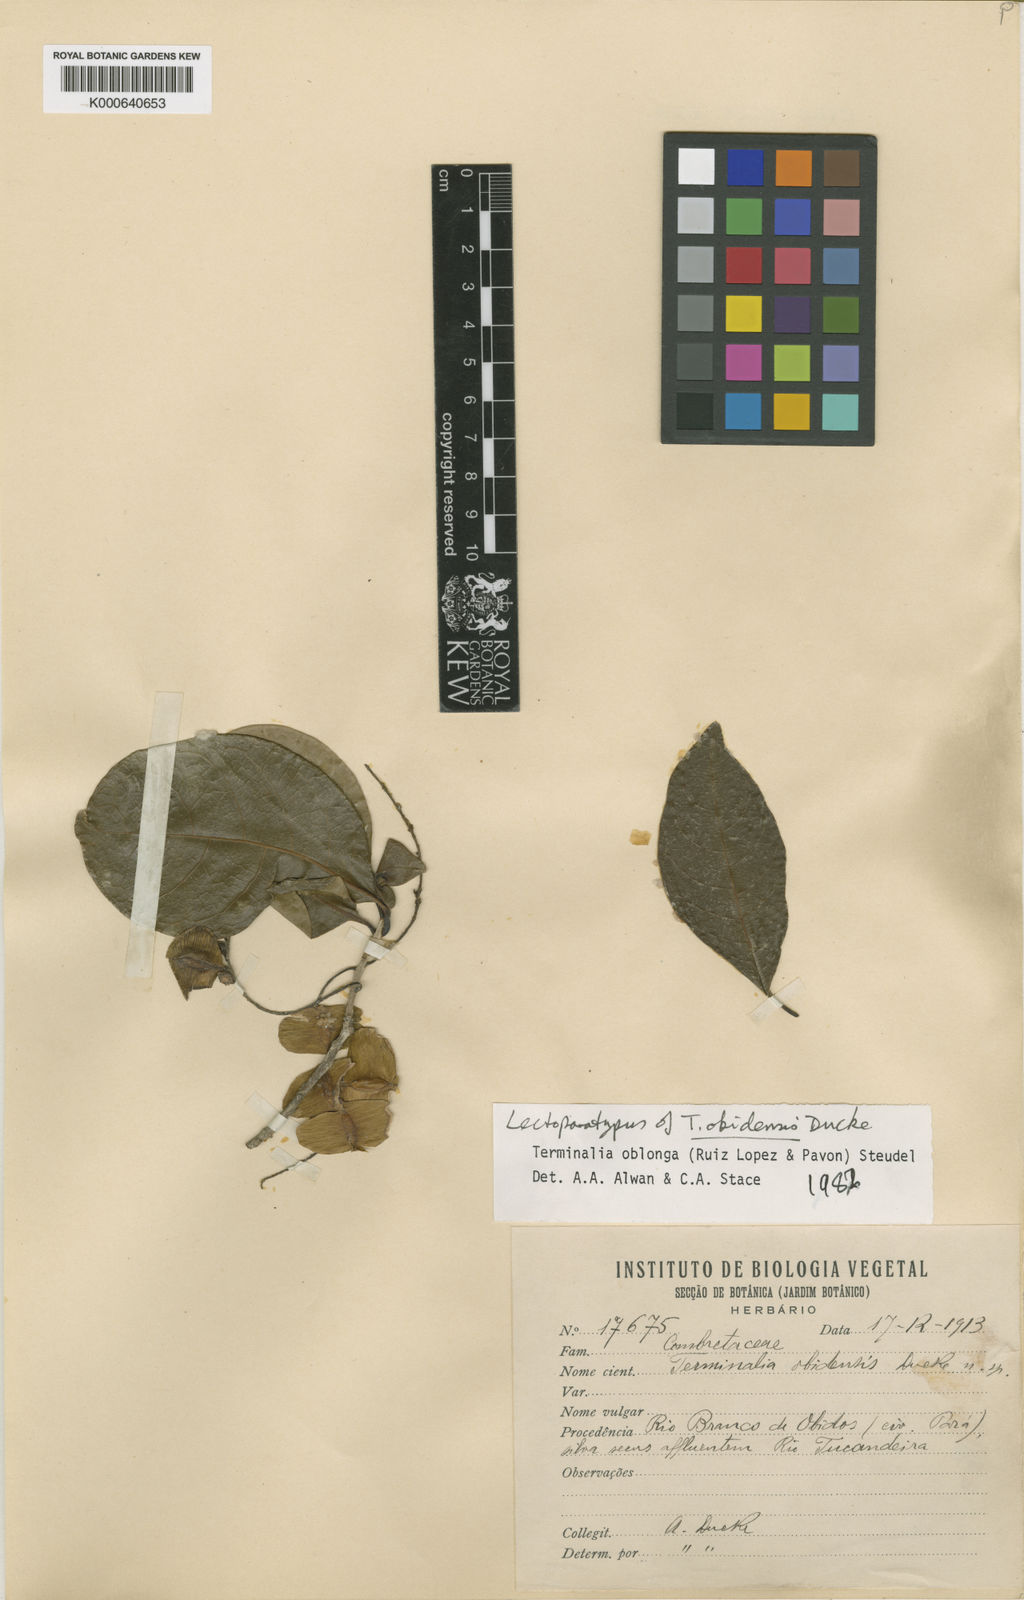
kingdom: Plantae
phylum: Tracheophyta
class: Magnoliopsida
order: Myrtales
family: Combretaceae
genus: Terminalia
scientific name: Terminalia oblonga
